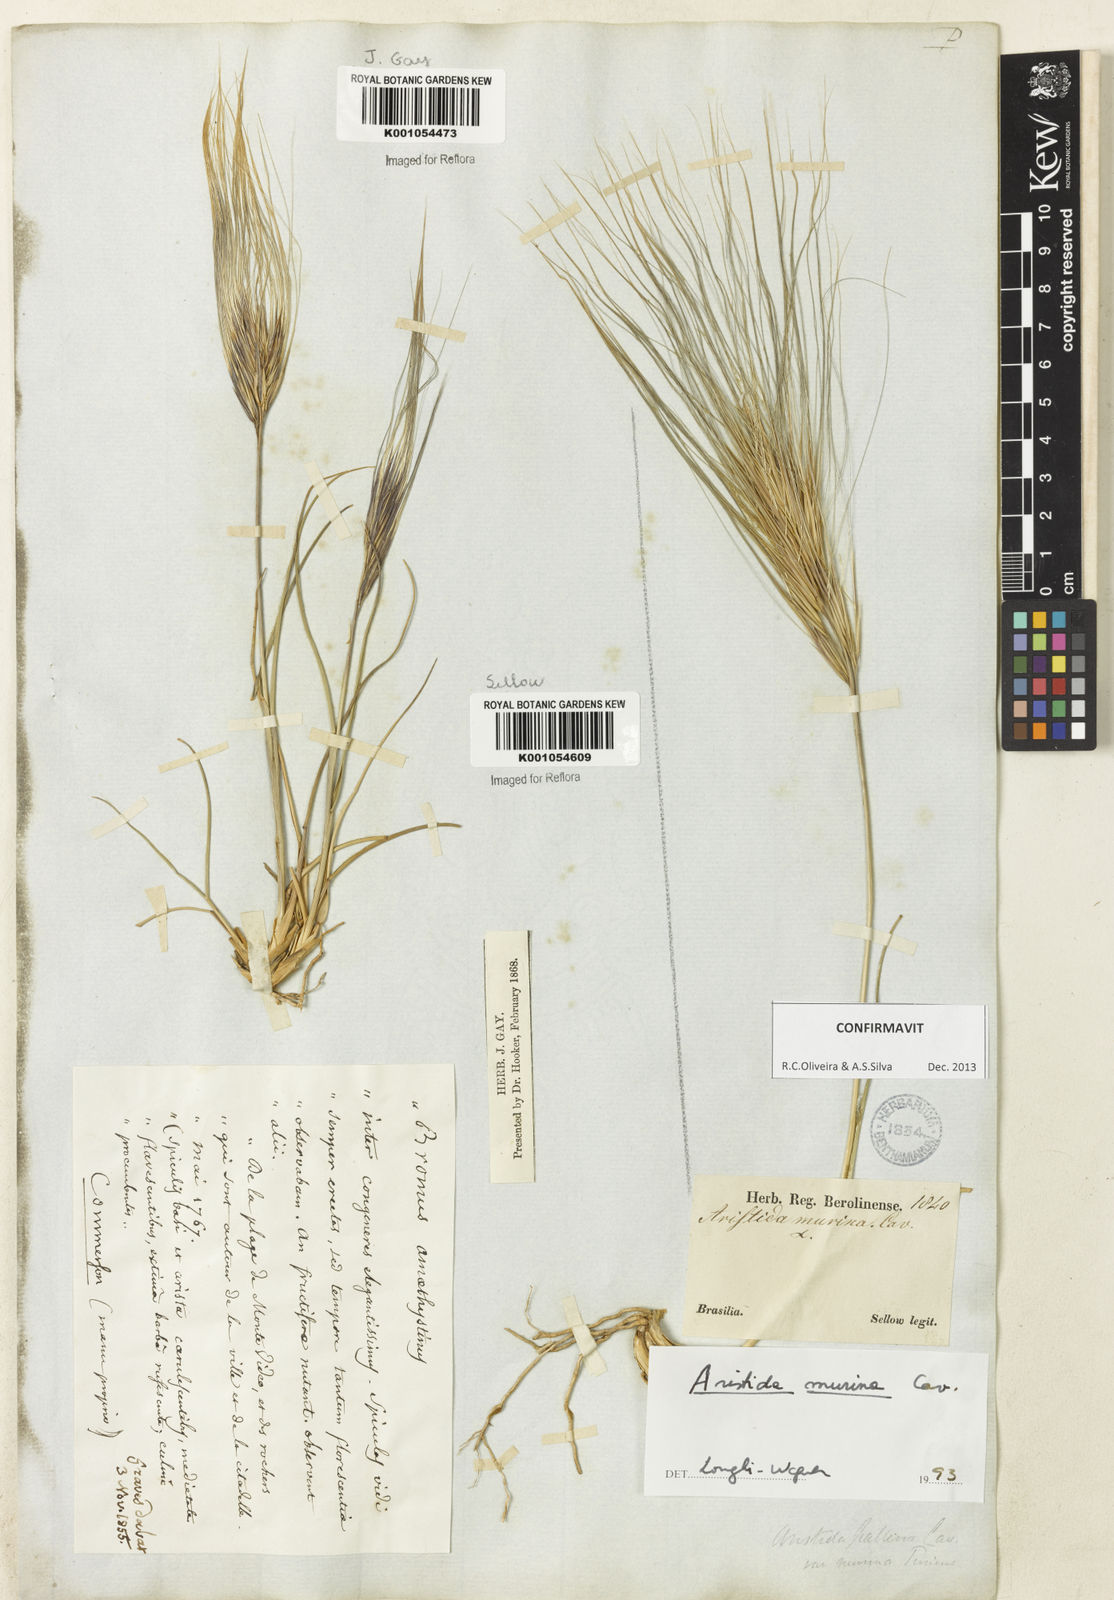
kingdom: Plantae
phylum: Tracheophyta
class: Liliopsida
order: Poales
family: Poaceae
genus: Aristida
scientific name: Aristida murina
